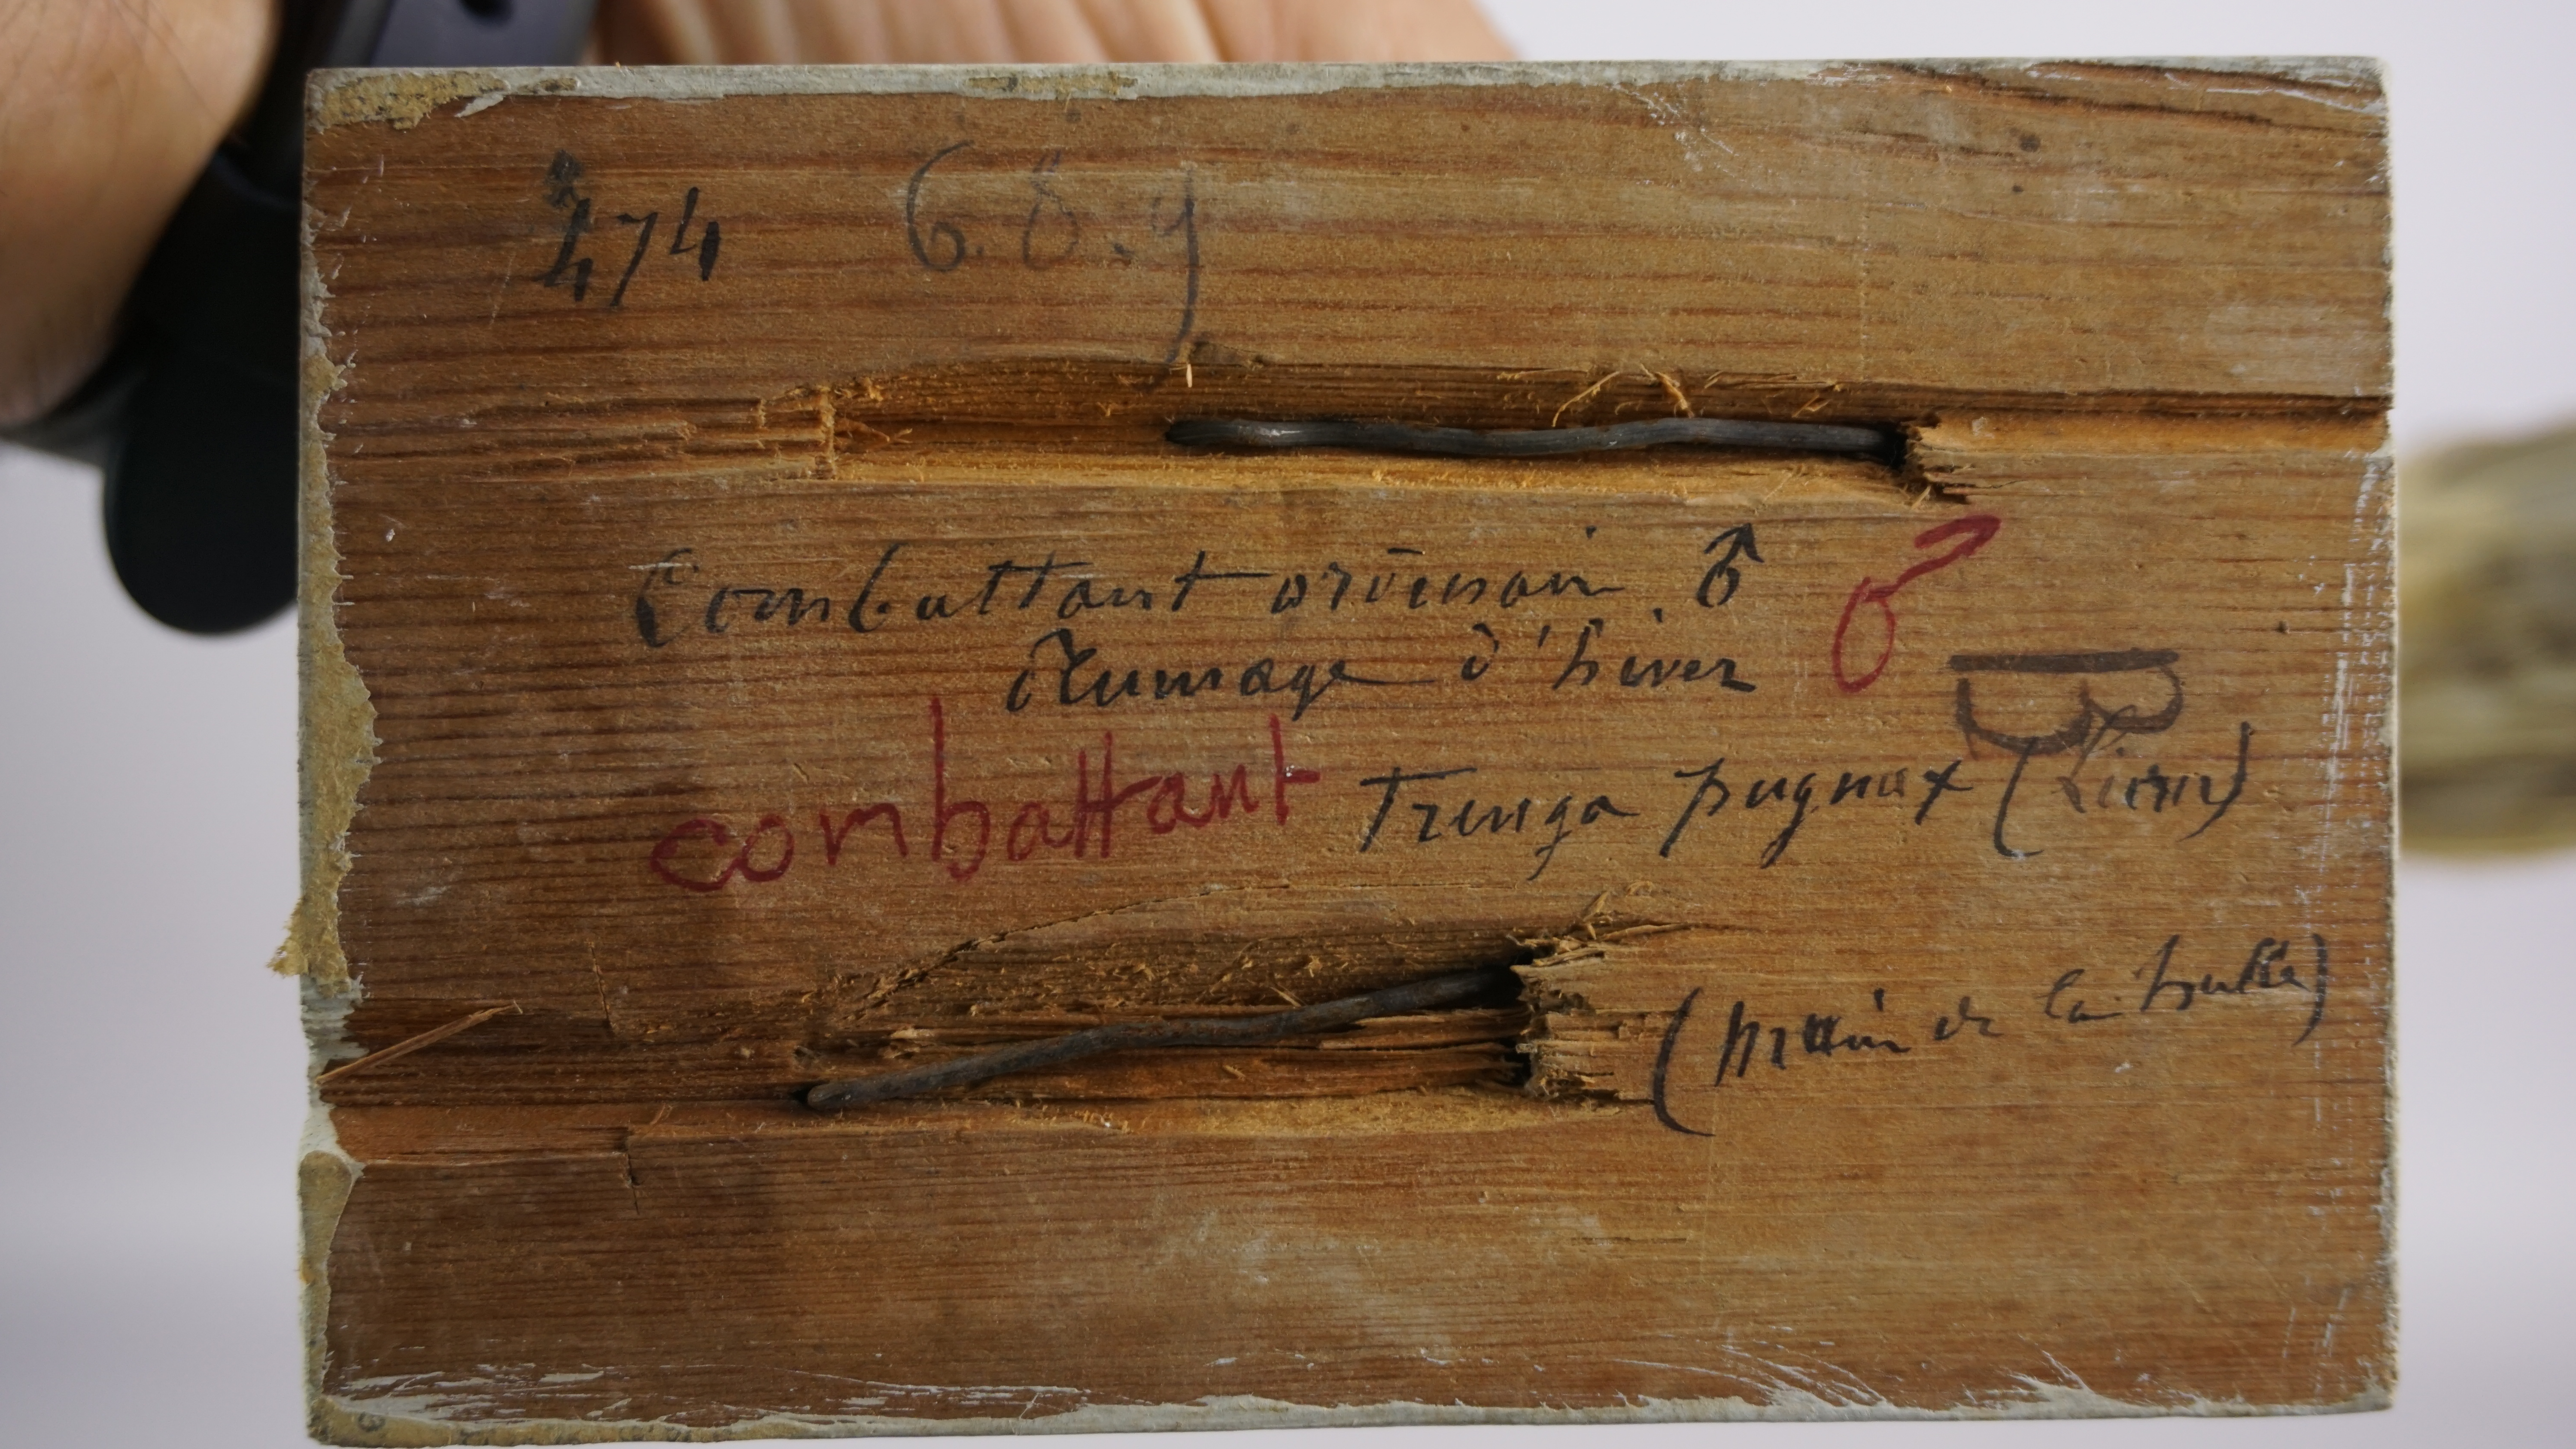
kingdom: Animalia
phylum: Chordata
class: Aves
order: Charadriiformes
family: Scolopacidae
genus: Calidris
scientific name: Calidris pugnax
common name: Ruff
